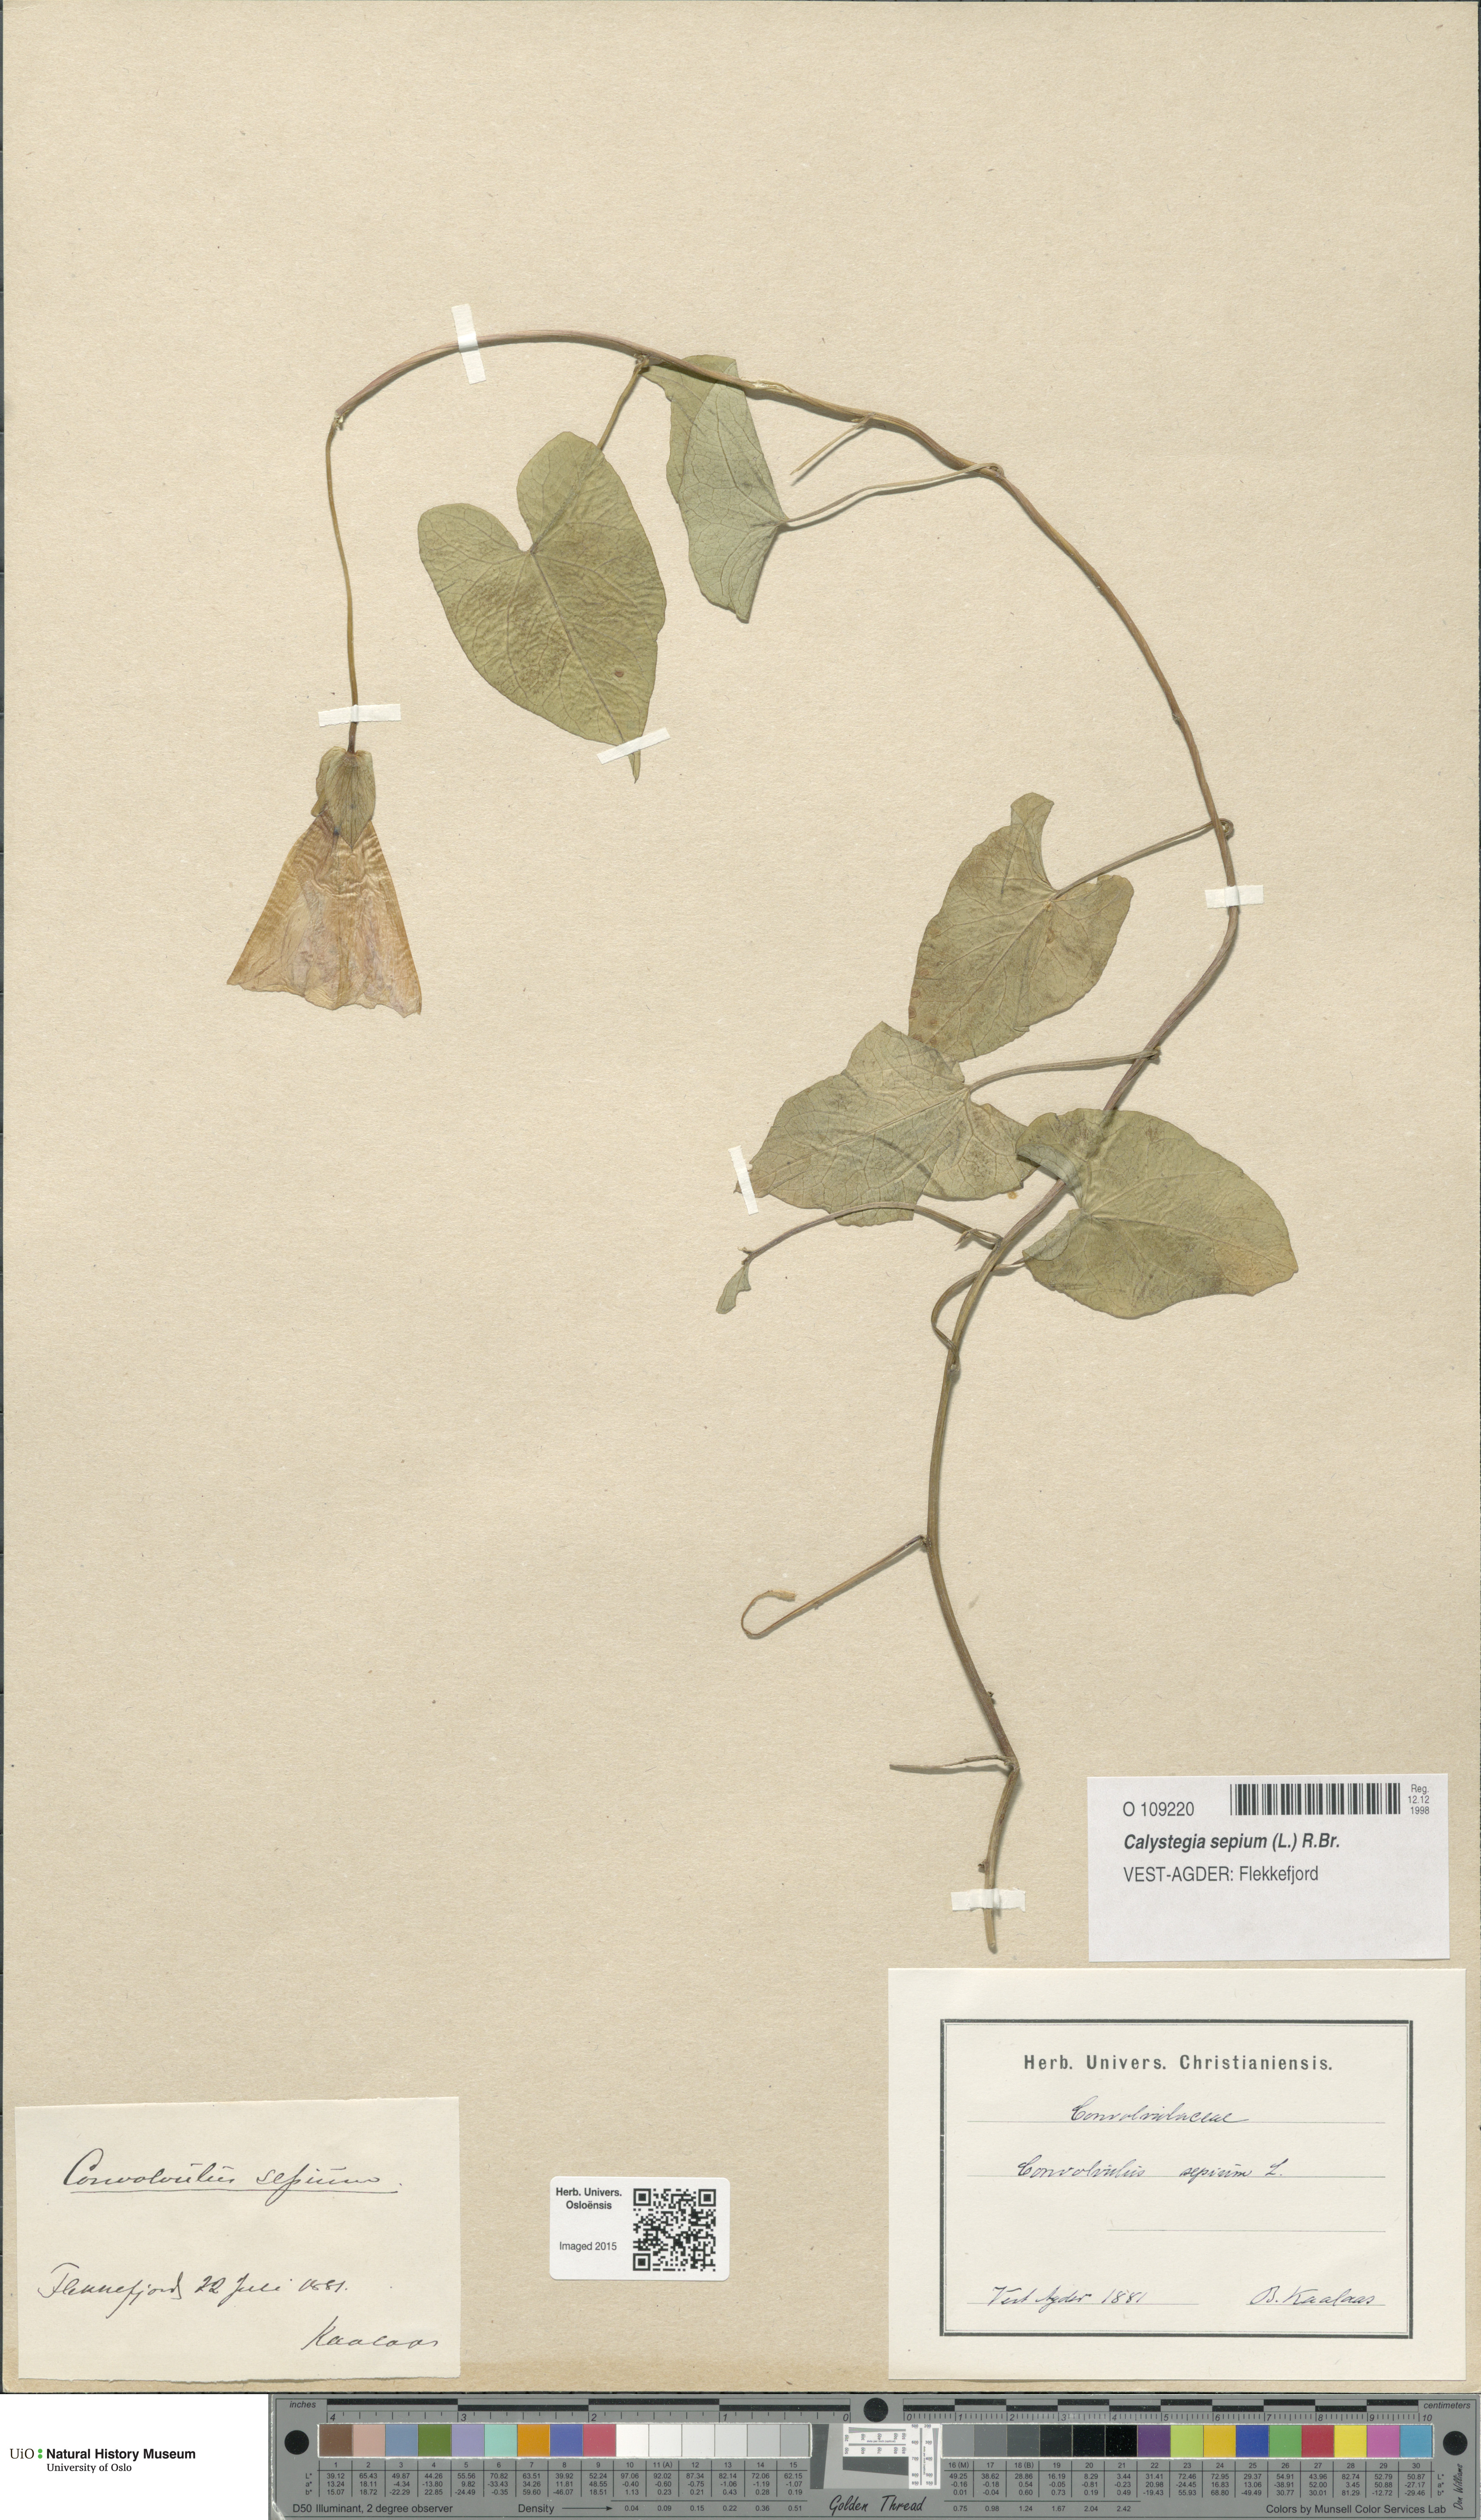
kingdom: Plantae
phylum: Tracheophyta
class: Magnoliopsida
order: Solanales
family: Convolvulaceae
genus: Calystegia
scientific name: Calystegia sepium
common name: Hedge bindweed
